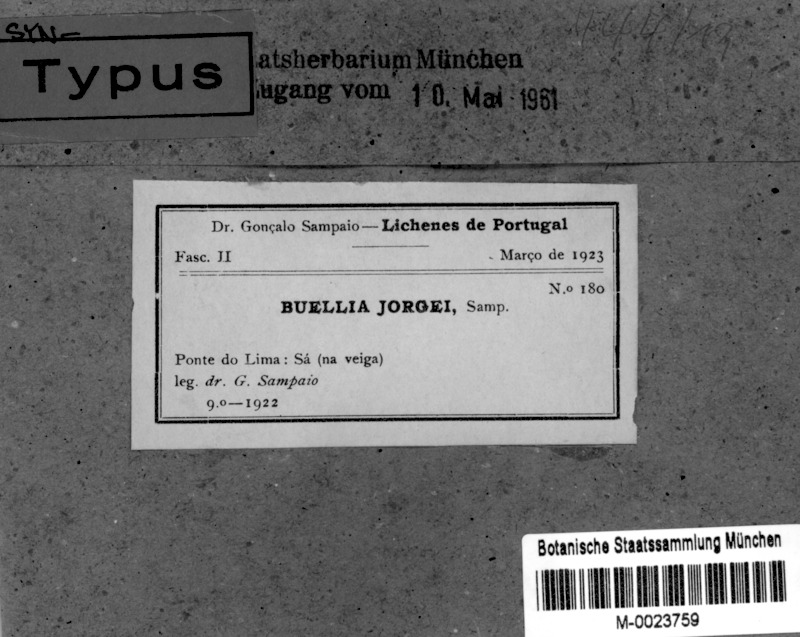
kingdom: Fungi
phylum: Ascomycota
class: Lecanoromycetes
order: Caliciales
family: Caliciaceae
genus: Buellia
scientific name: Buellia erubescens
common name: Common button lichen
